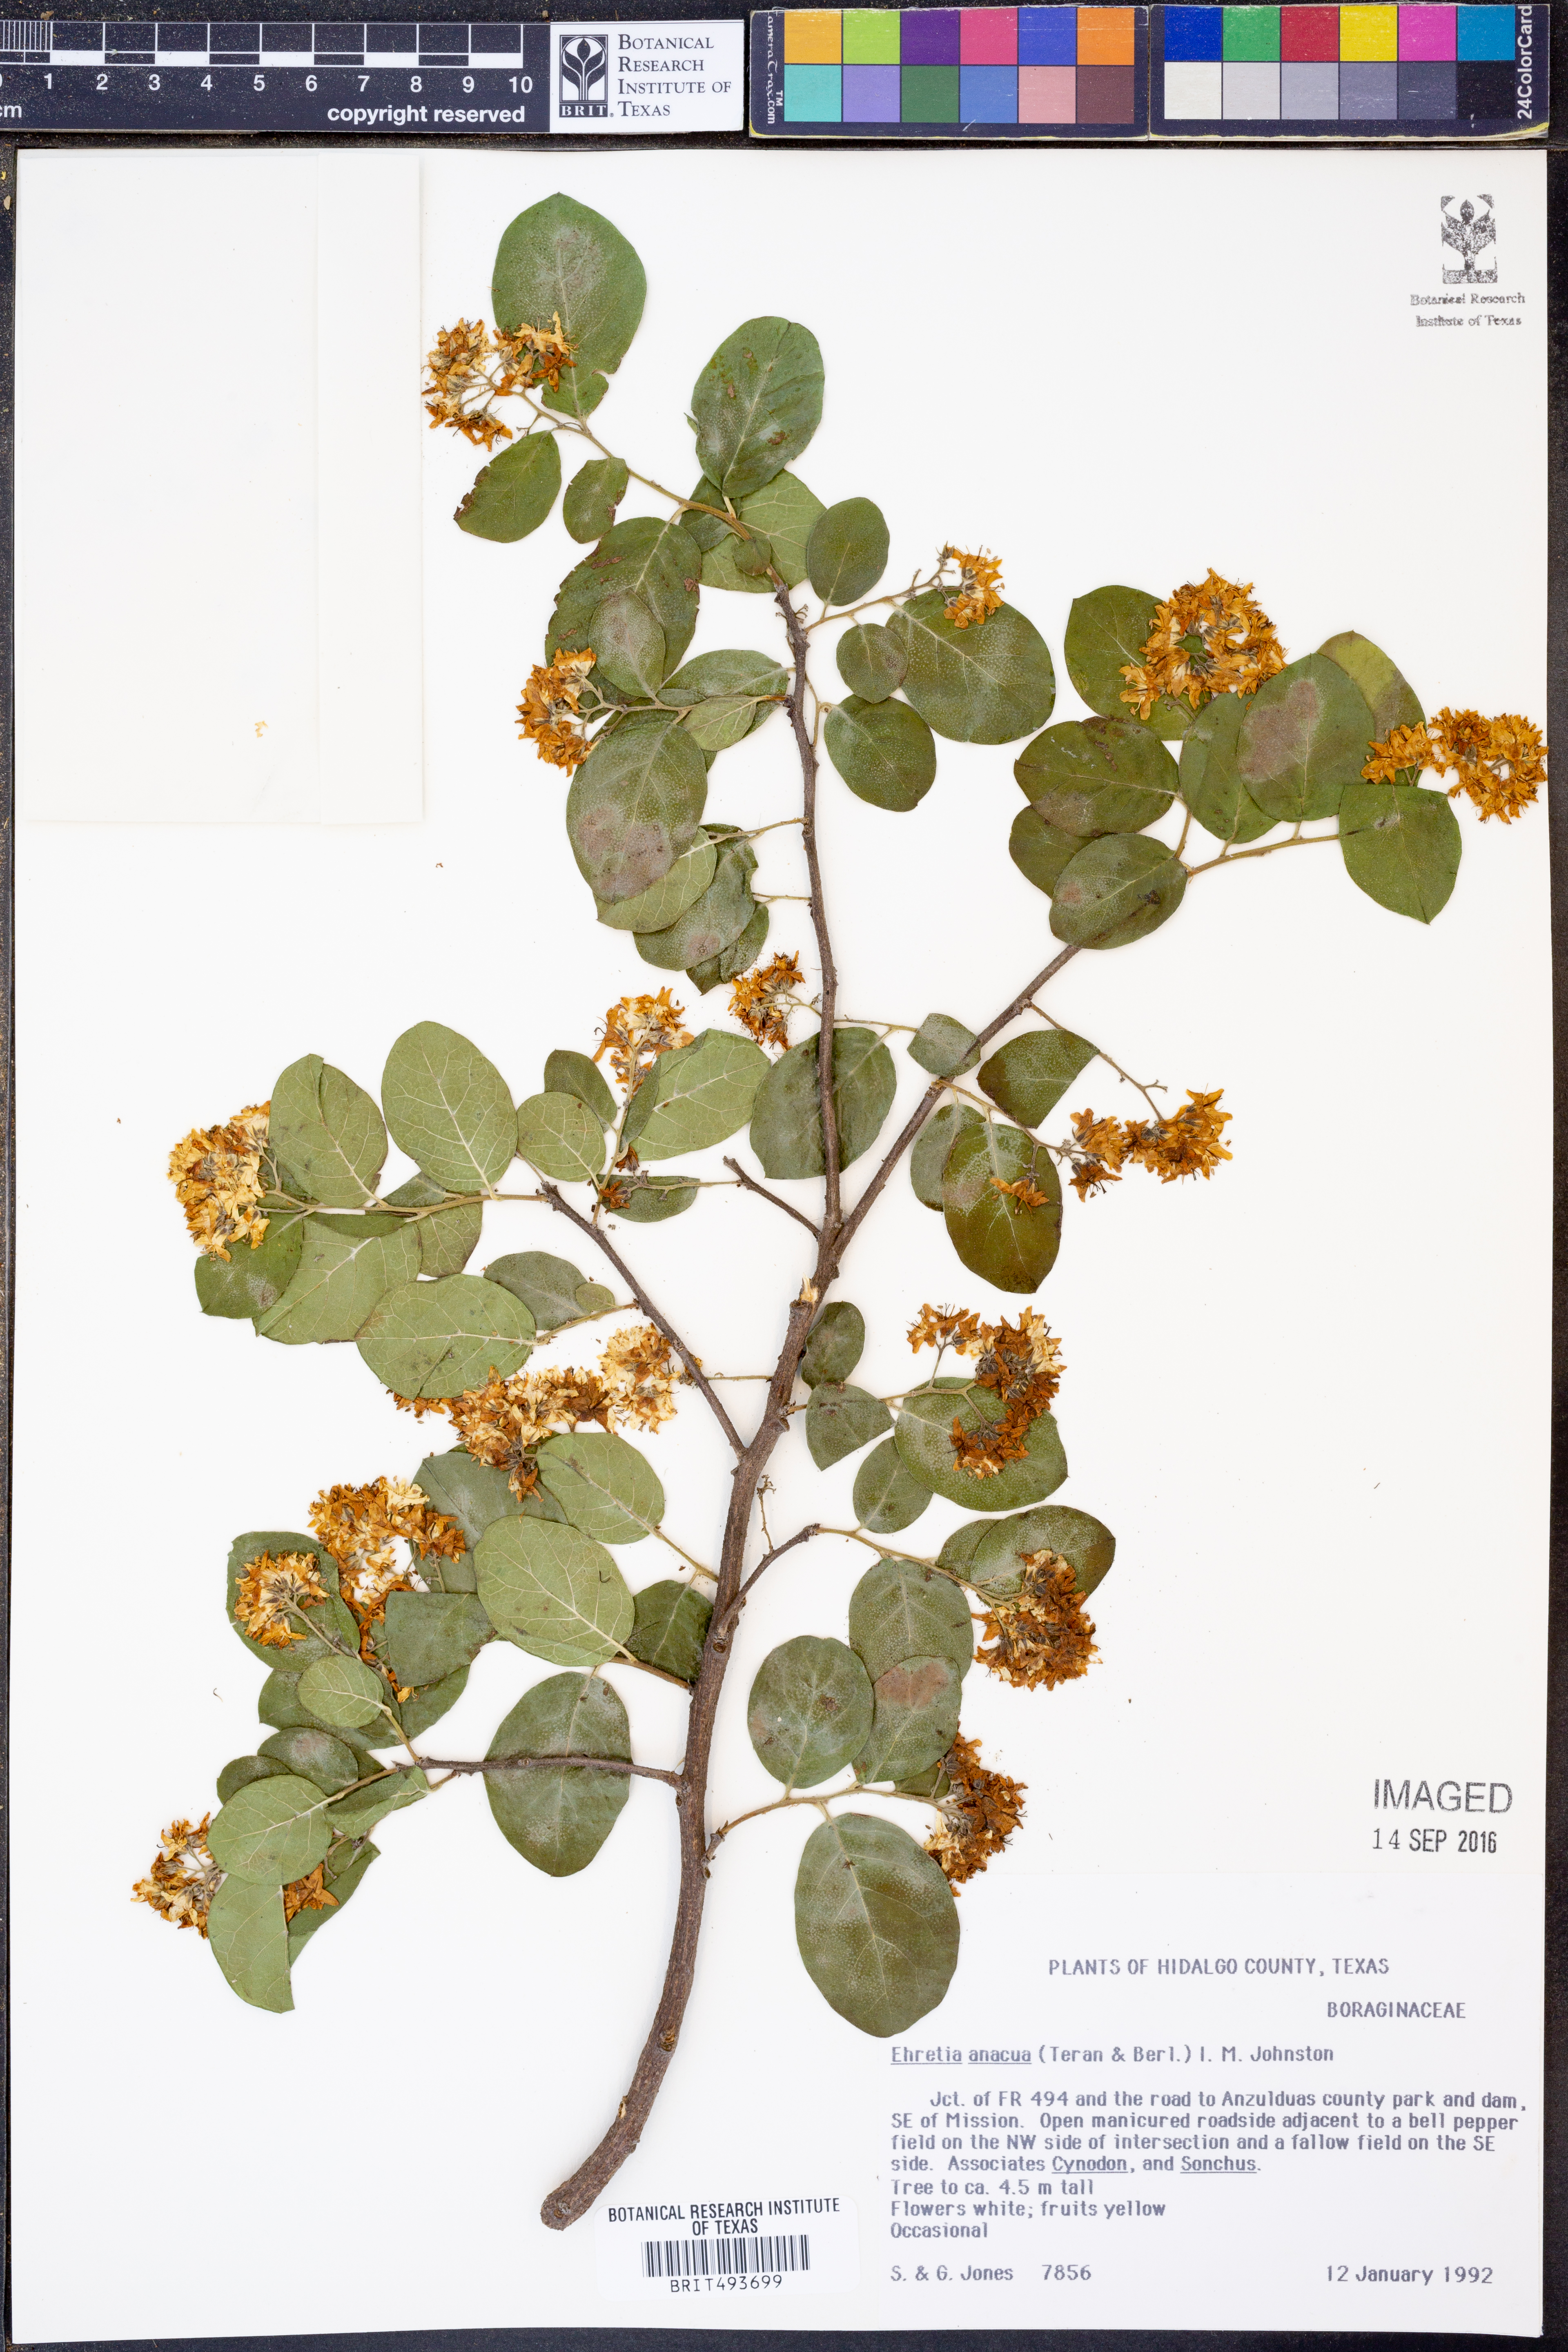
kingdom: Plantae
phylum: Tracheophyta
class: Magnoliopsida
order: Boraginales
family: Ehretiaceae
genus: Ehretia
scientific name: Ehretia anacua
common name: Sugarberry
